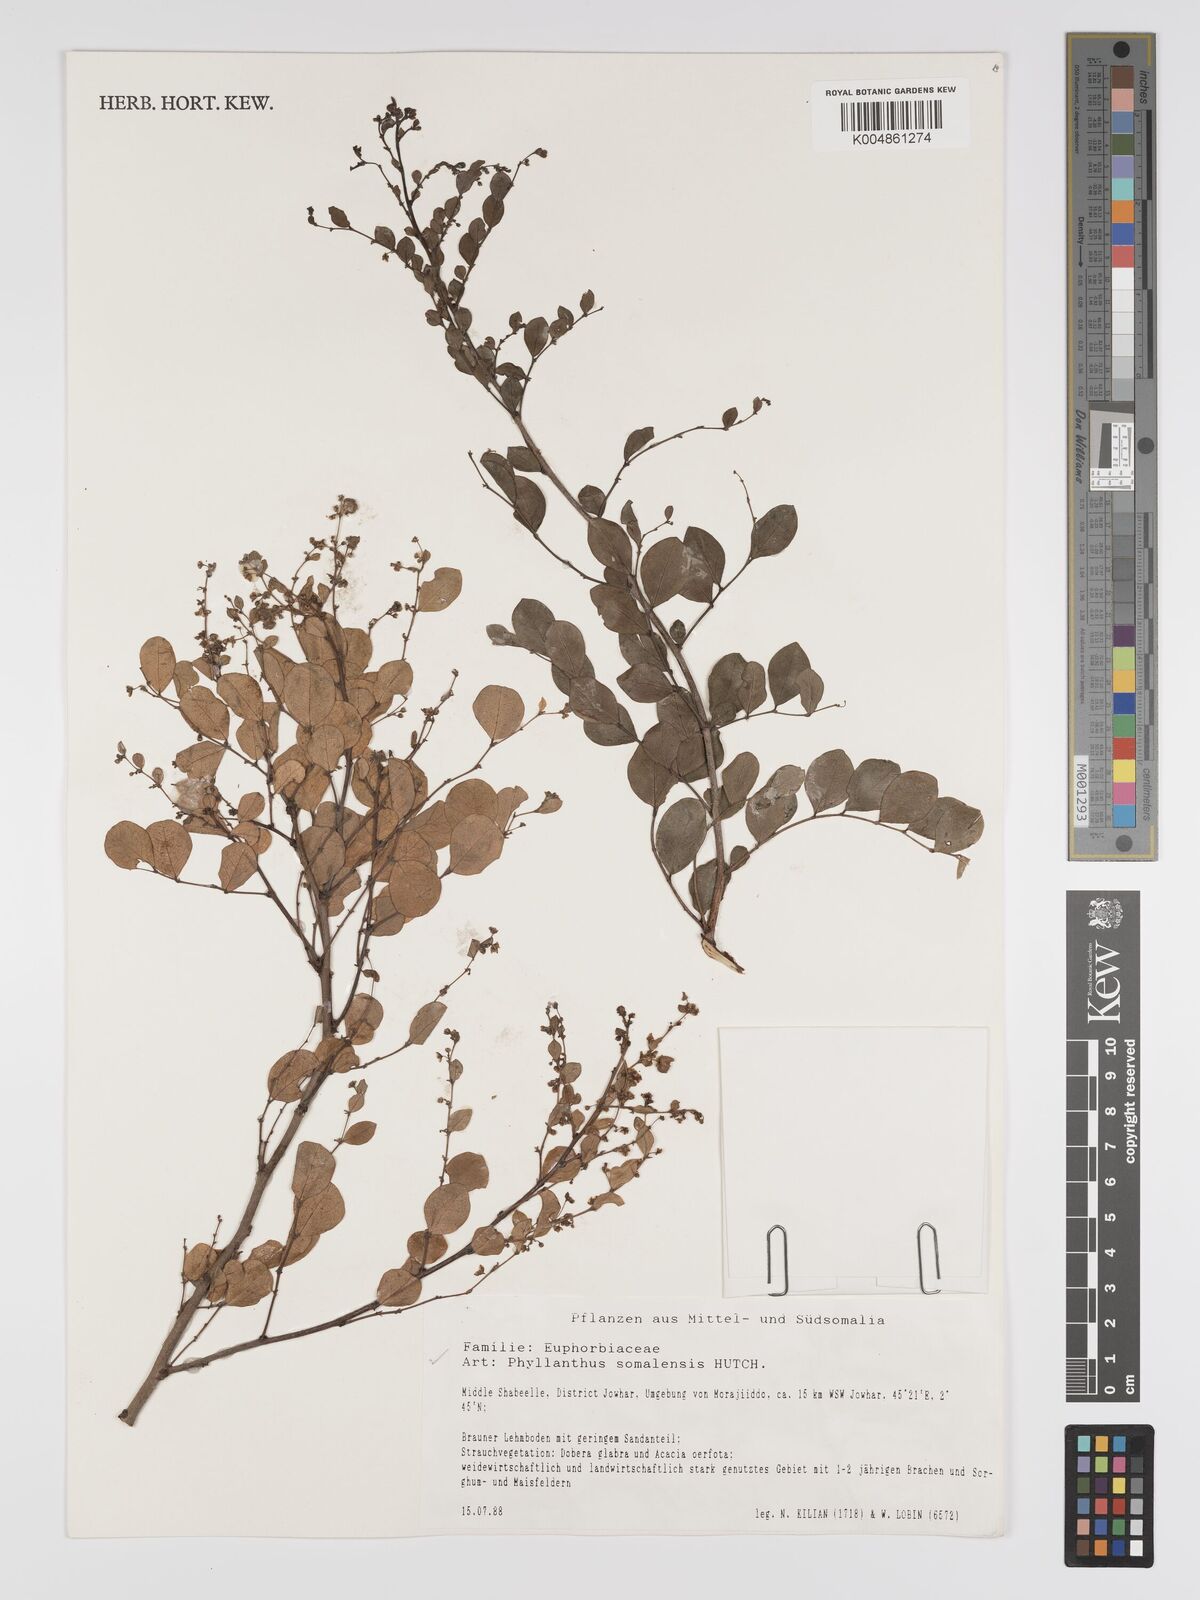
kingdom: Plantae
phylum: Tracheophyta
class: Magnoliopsida
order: Malpighiales
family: Phyllanthaceae
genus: Phyllanthus
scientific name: Phyllanthus somalensis
